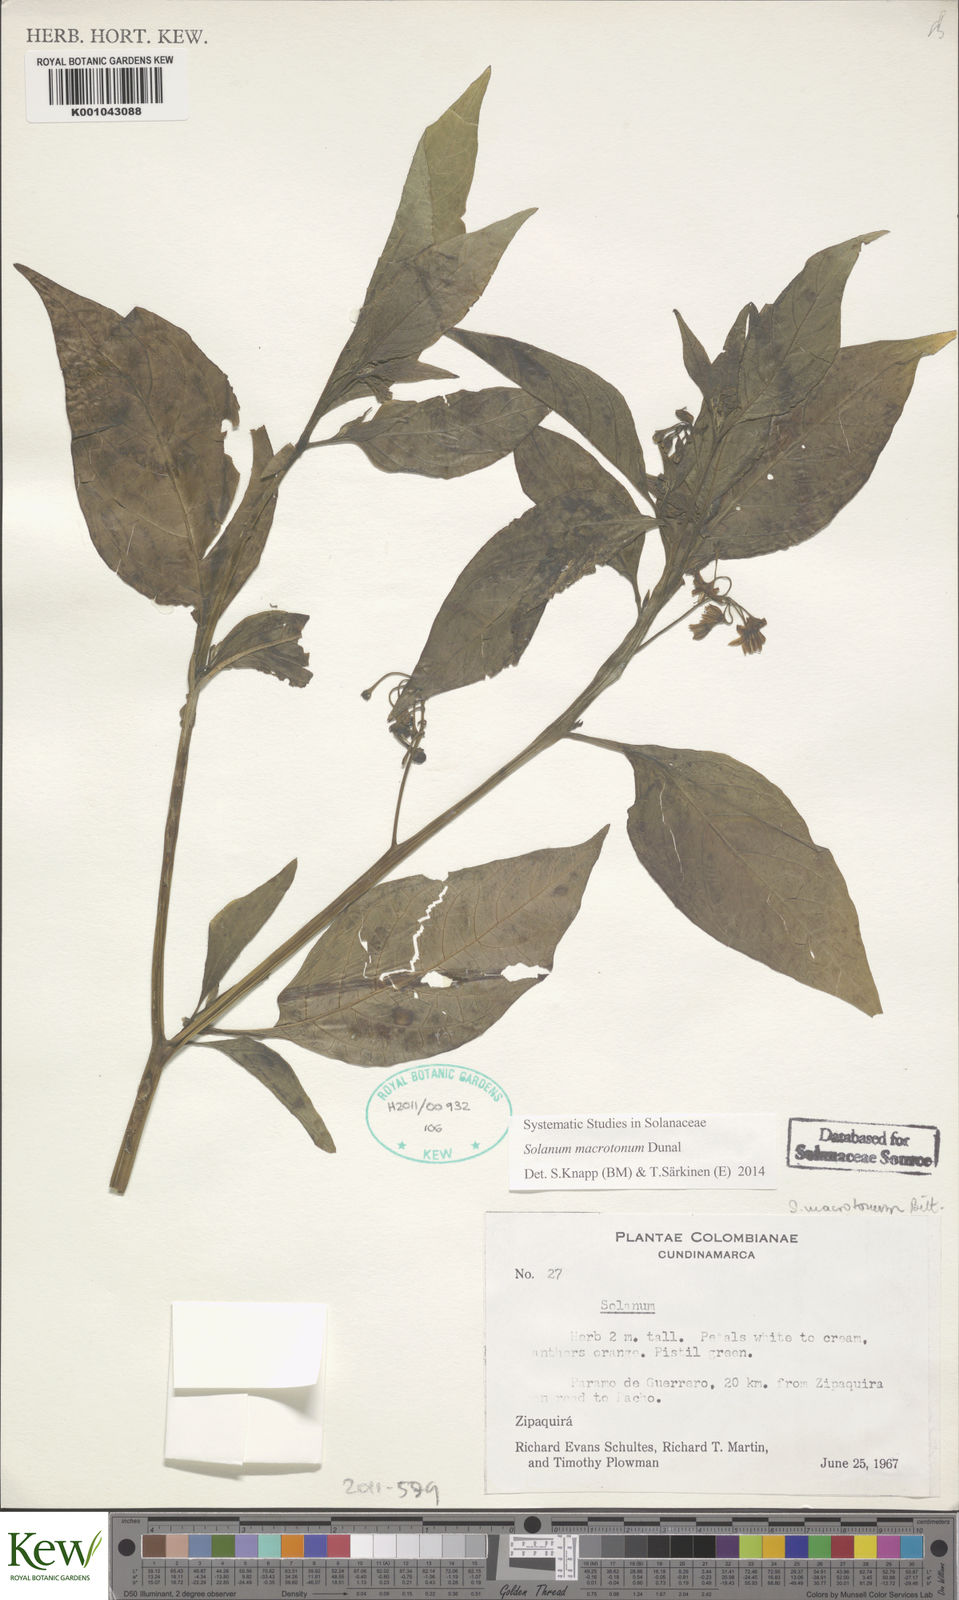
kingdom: Plantae
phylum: Tracheophyta
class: Magnoliopsida
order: Solanales
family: Solanaceae
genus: Solanum
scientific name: Solanum macrotonum
